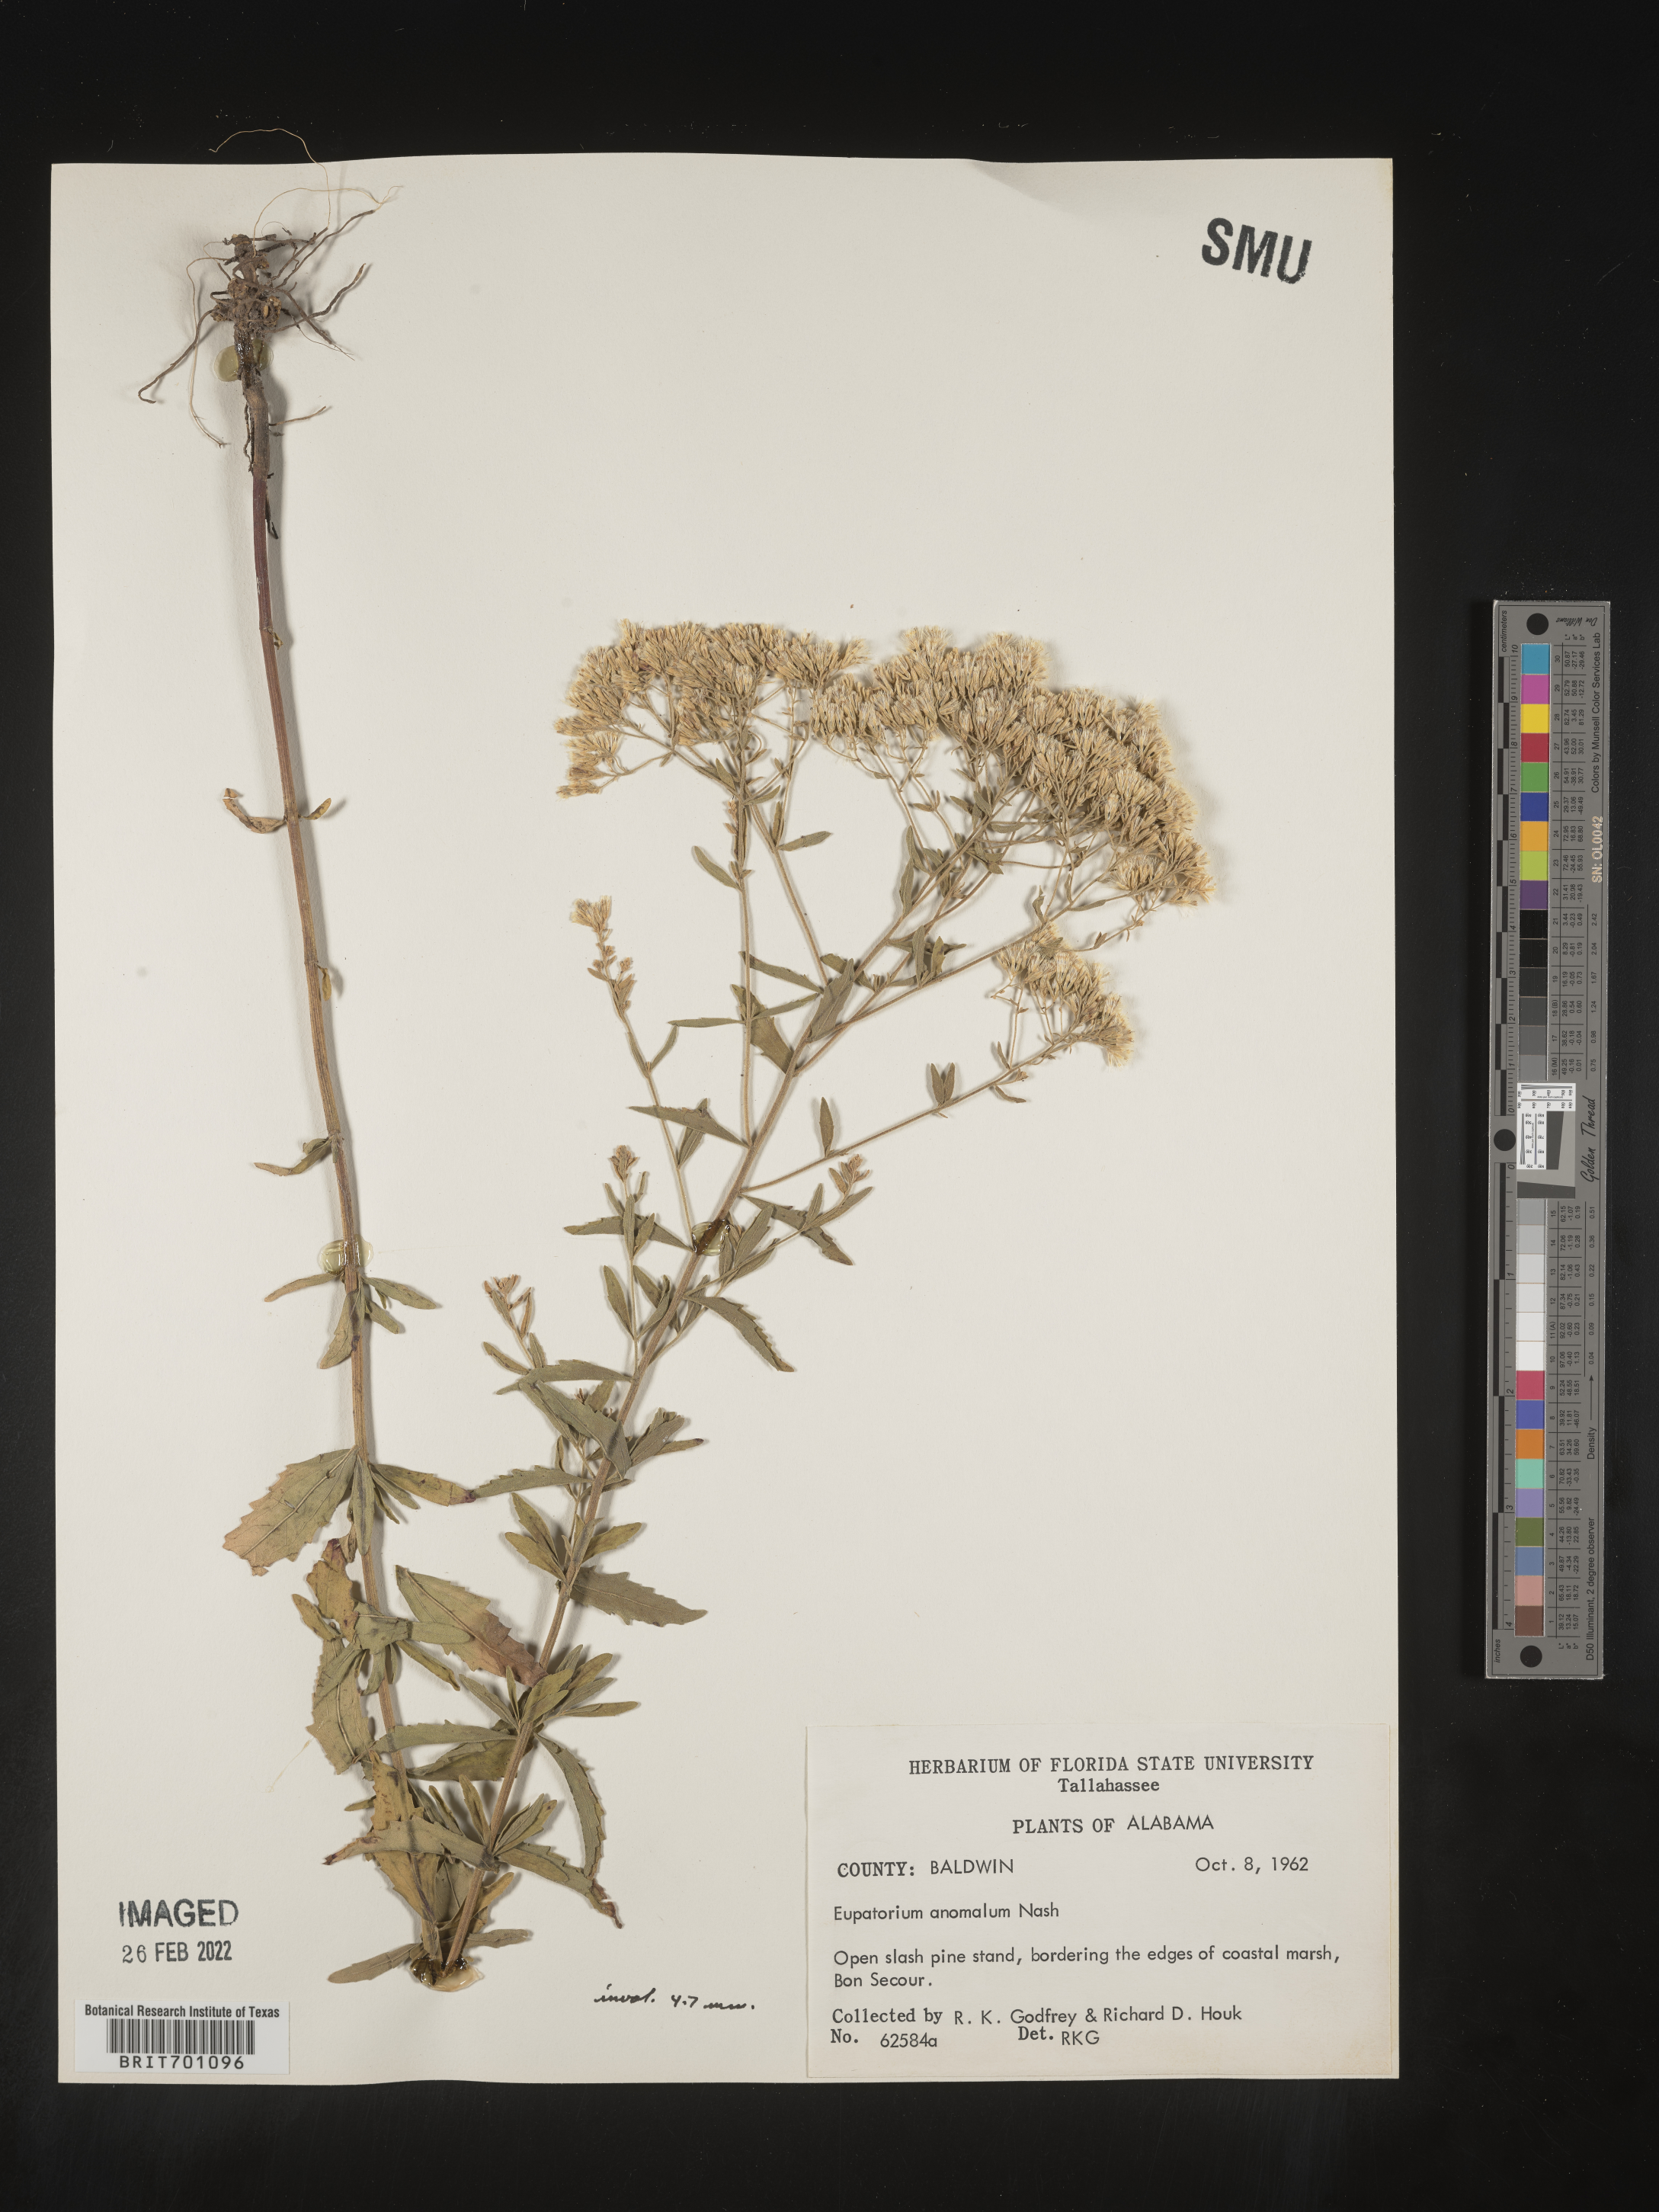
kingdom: Plantae
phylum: Tracheophyta
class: Magnoliopsida
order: Asterales
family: Asteraceae
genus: Eupatorium
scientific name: Eupatorium anomalum
